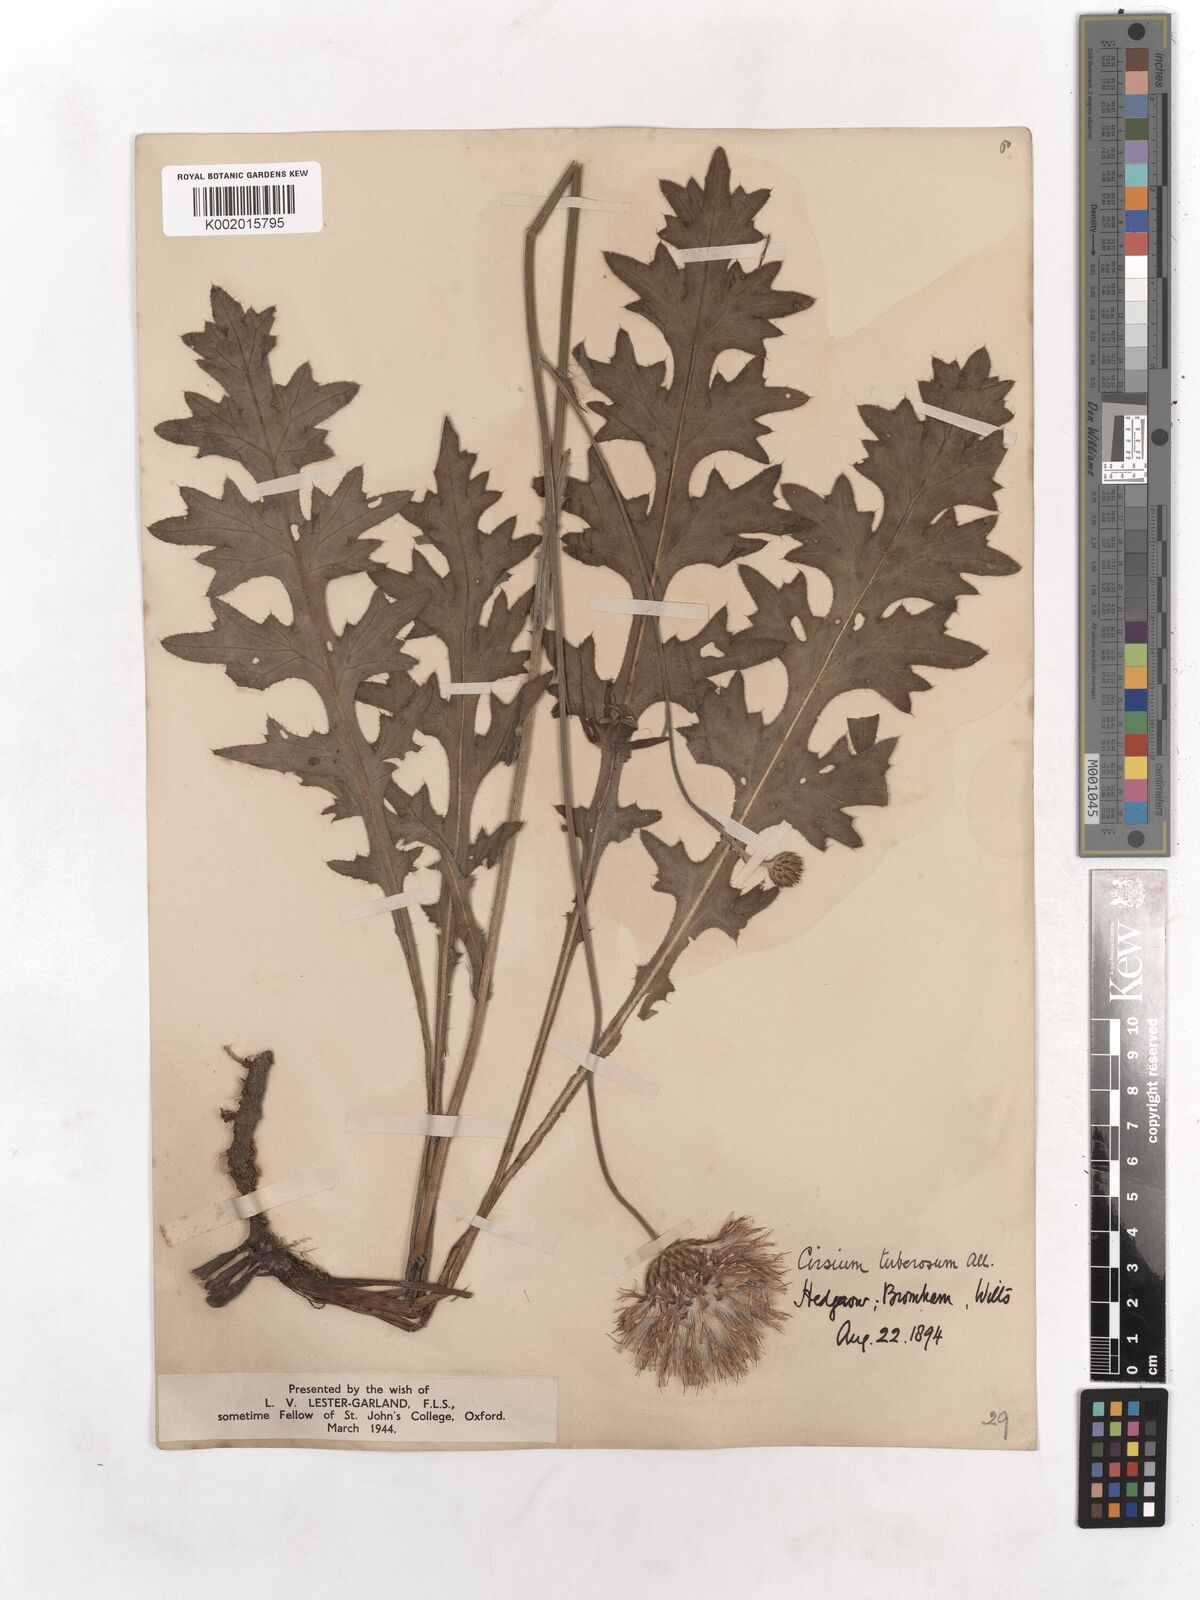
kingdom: Plantae
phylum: Tracheophyta
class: Magnoliopsida
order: Asterales
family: Asteraceae
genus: Cirsium
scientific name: Cirsium tuberosum
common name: Tuberous thistle
